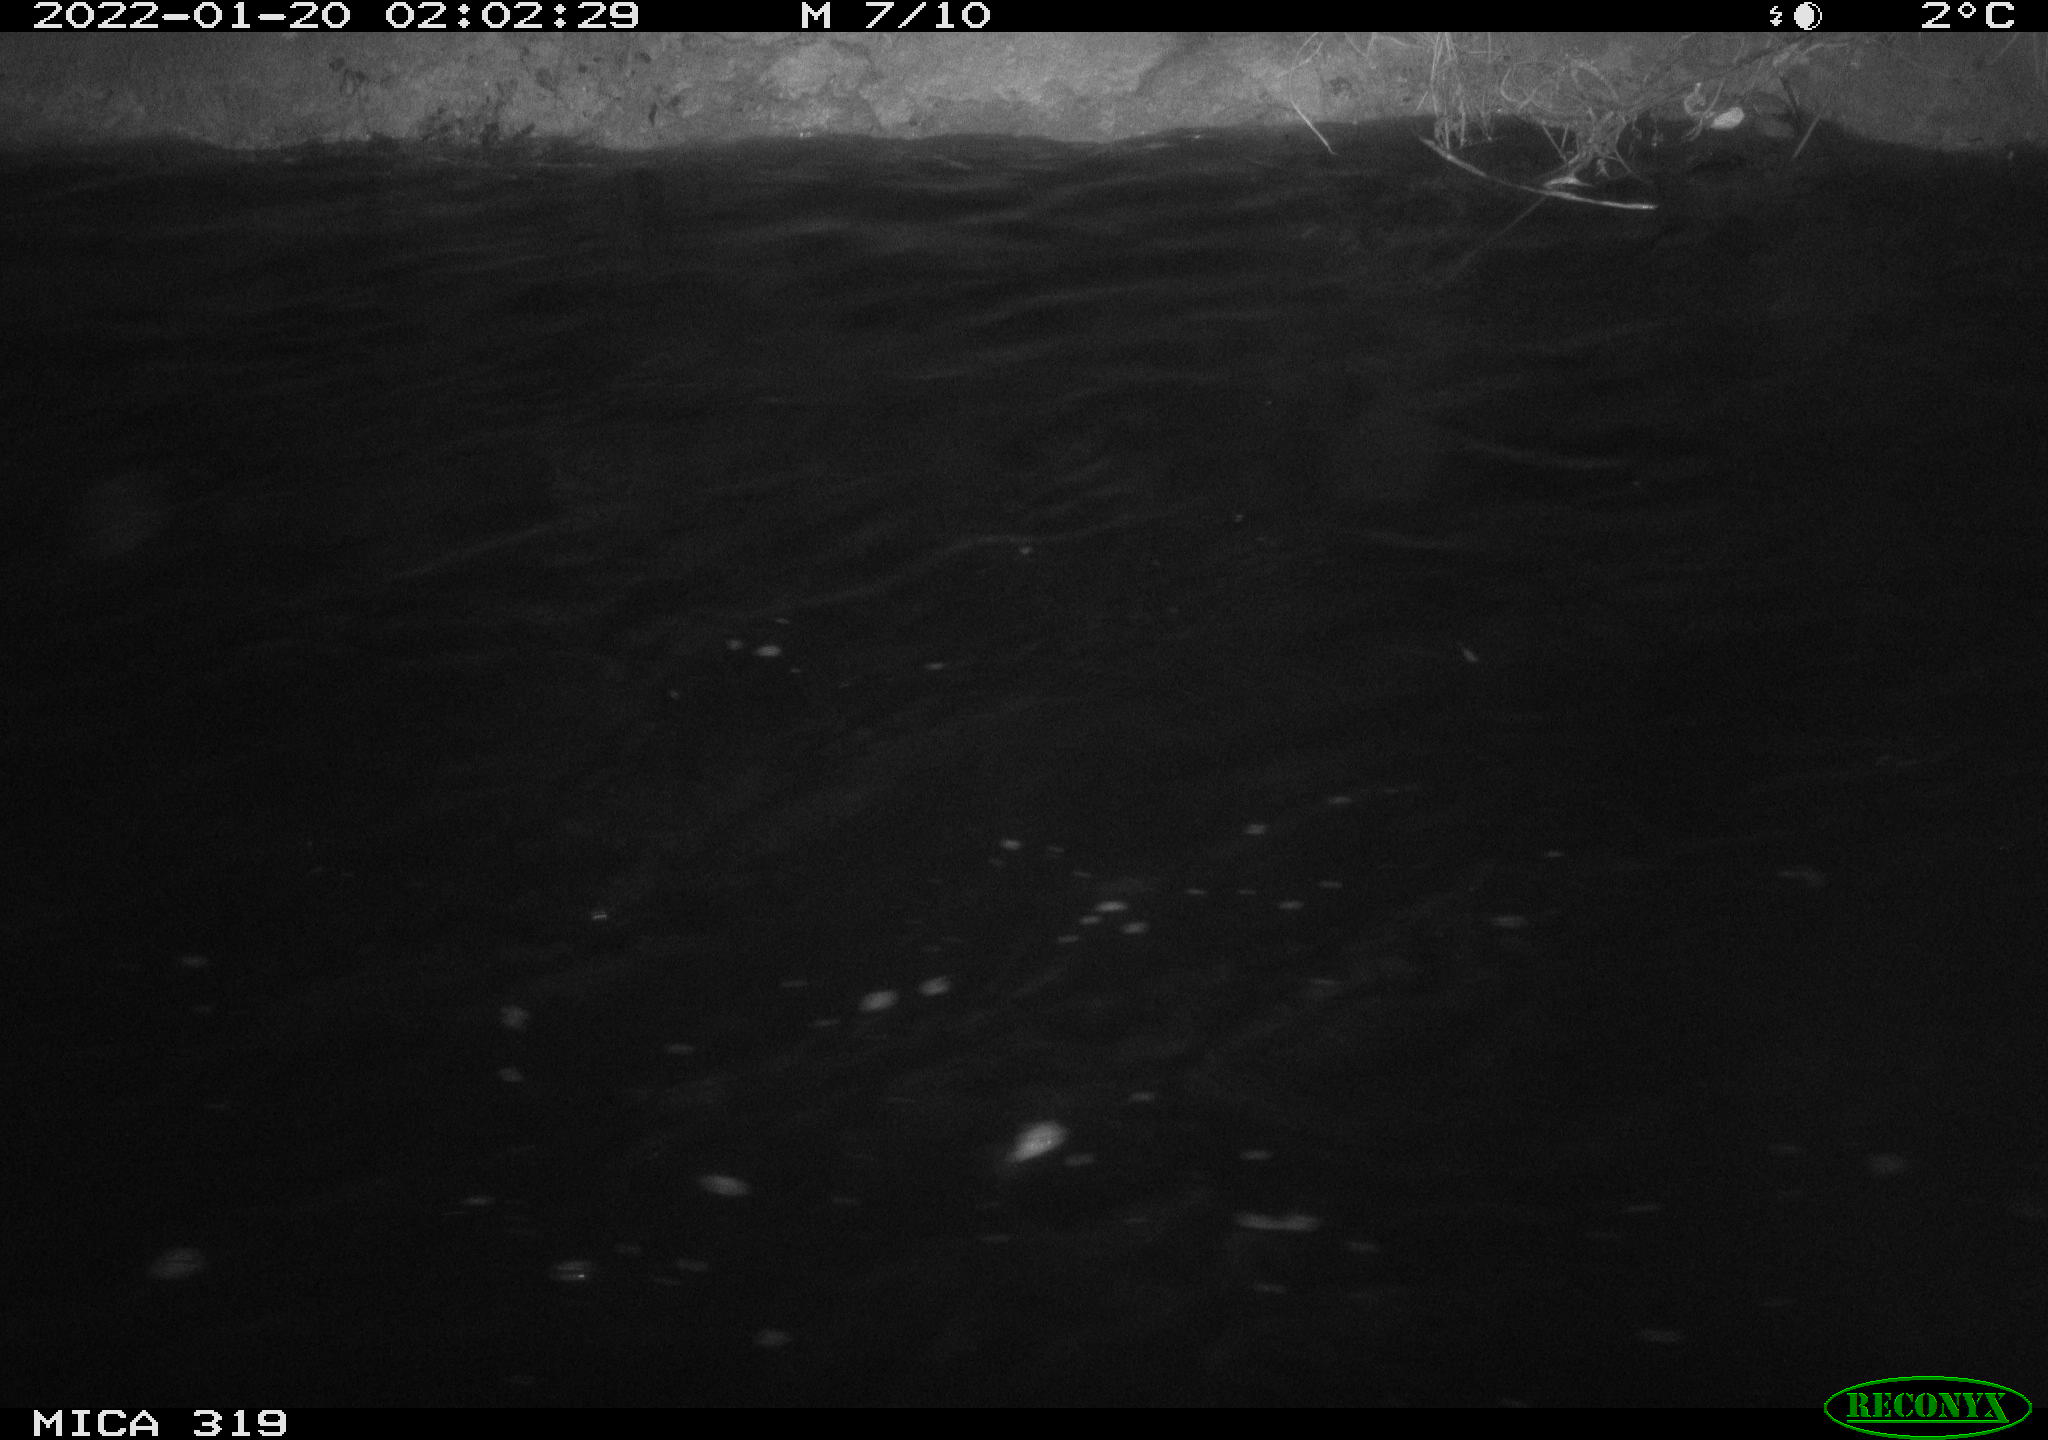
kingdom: Animalia
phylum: Chordata
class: Aves
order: Anseriformes
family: Anatidae
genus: Anas
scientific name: Anas platyrhynchos
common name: Mallard
